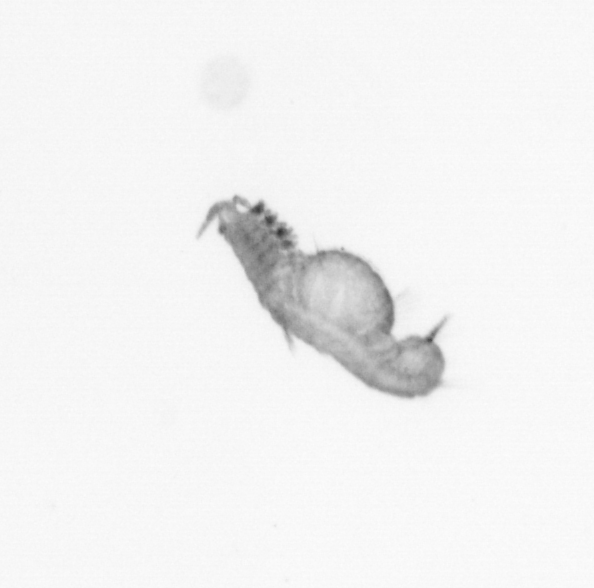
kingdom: Animalia
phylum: Annelida
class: Polychaeta
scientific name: Polychaeta
